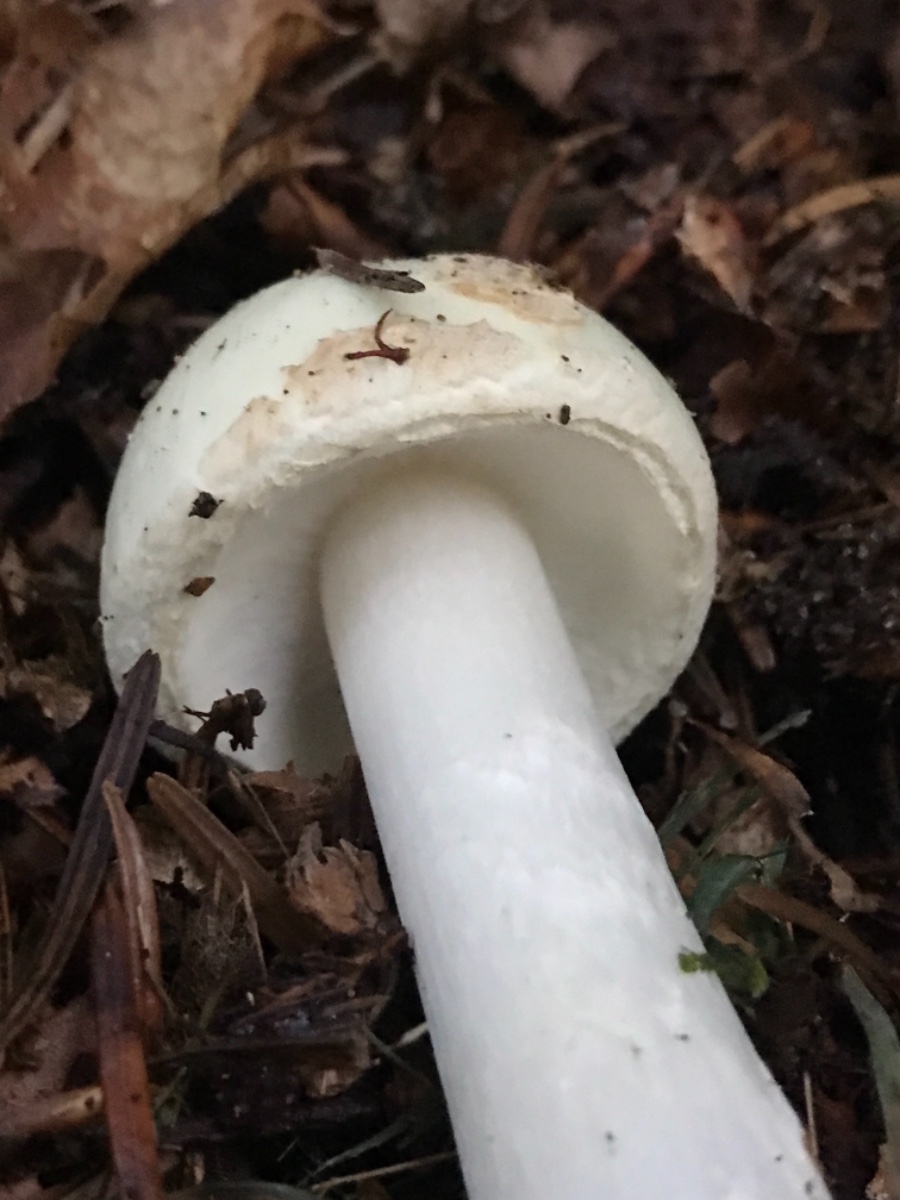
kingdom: Fungi
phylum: Basidiomycota
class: Agaricomycetes
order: Agaricales
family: Amanitaceae
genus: Amanita
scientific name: Amanita citrina
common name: kugleknoldet fluesvamp
